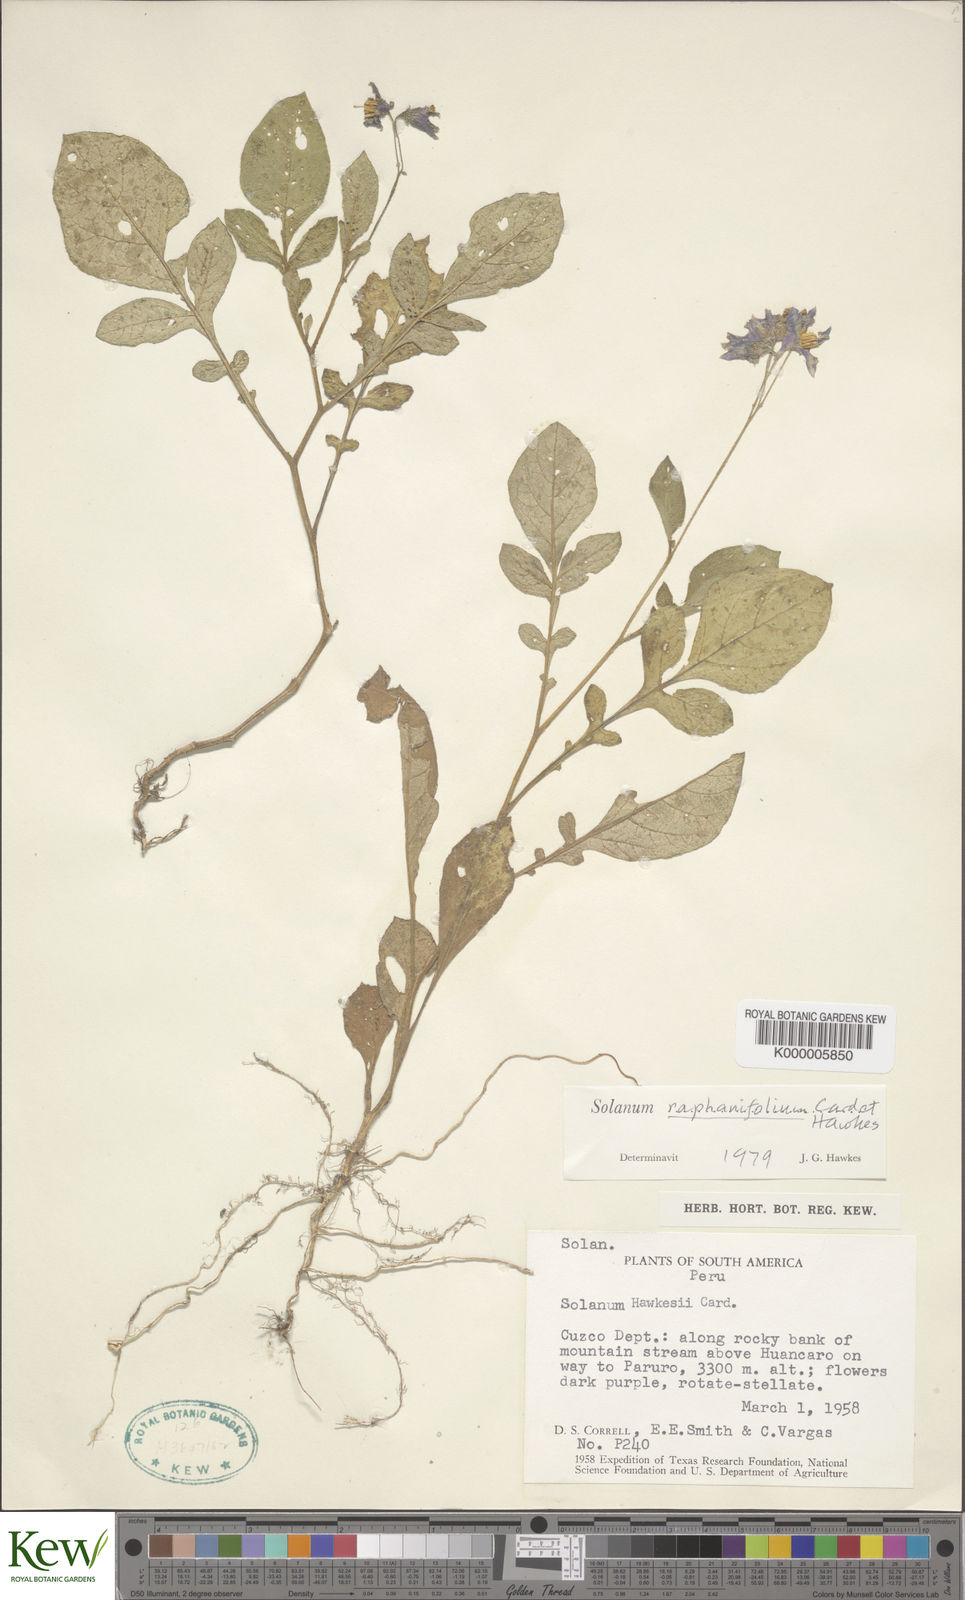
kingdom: Plantae
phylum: Tracheophyta
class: Magnoliopsida
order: Solanales
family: Solanaceae
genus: Solanum
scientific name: Solanum raphanifolium
